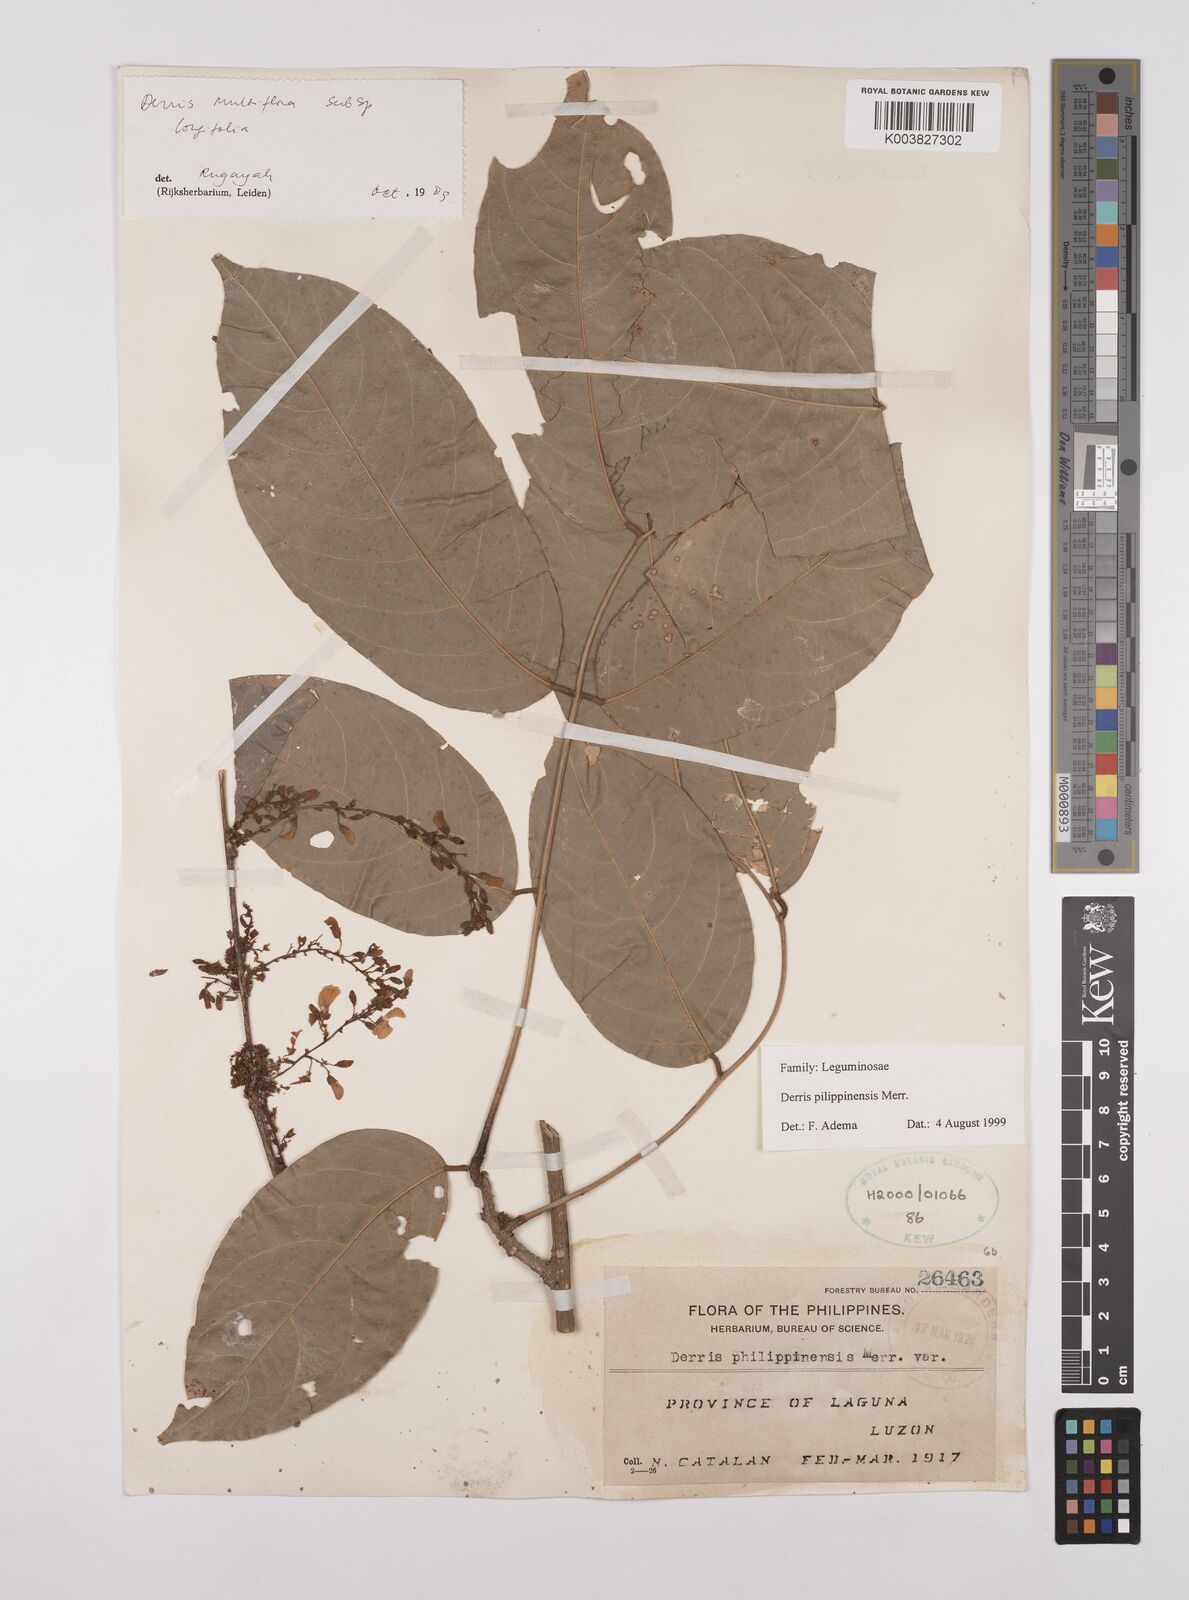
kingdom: Plantae
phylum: Tracheophyta
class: Magnoliopsida
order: Fabales
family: Fabaceae
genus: Brachypterum
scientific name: Brachypterum philippinense
